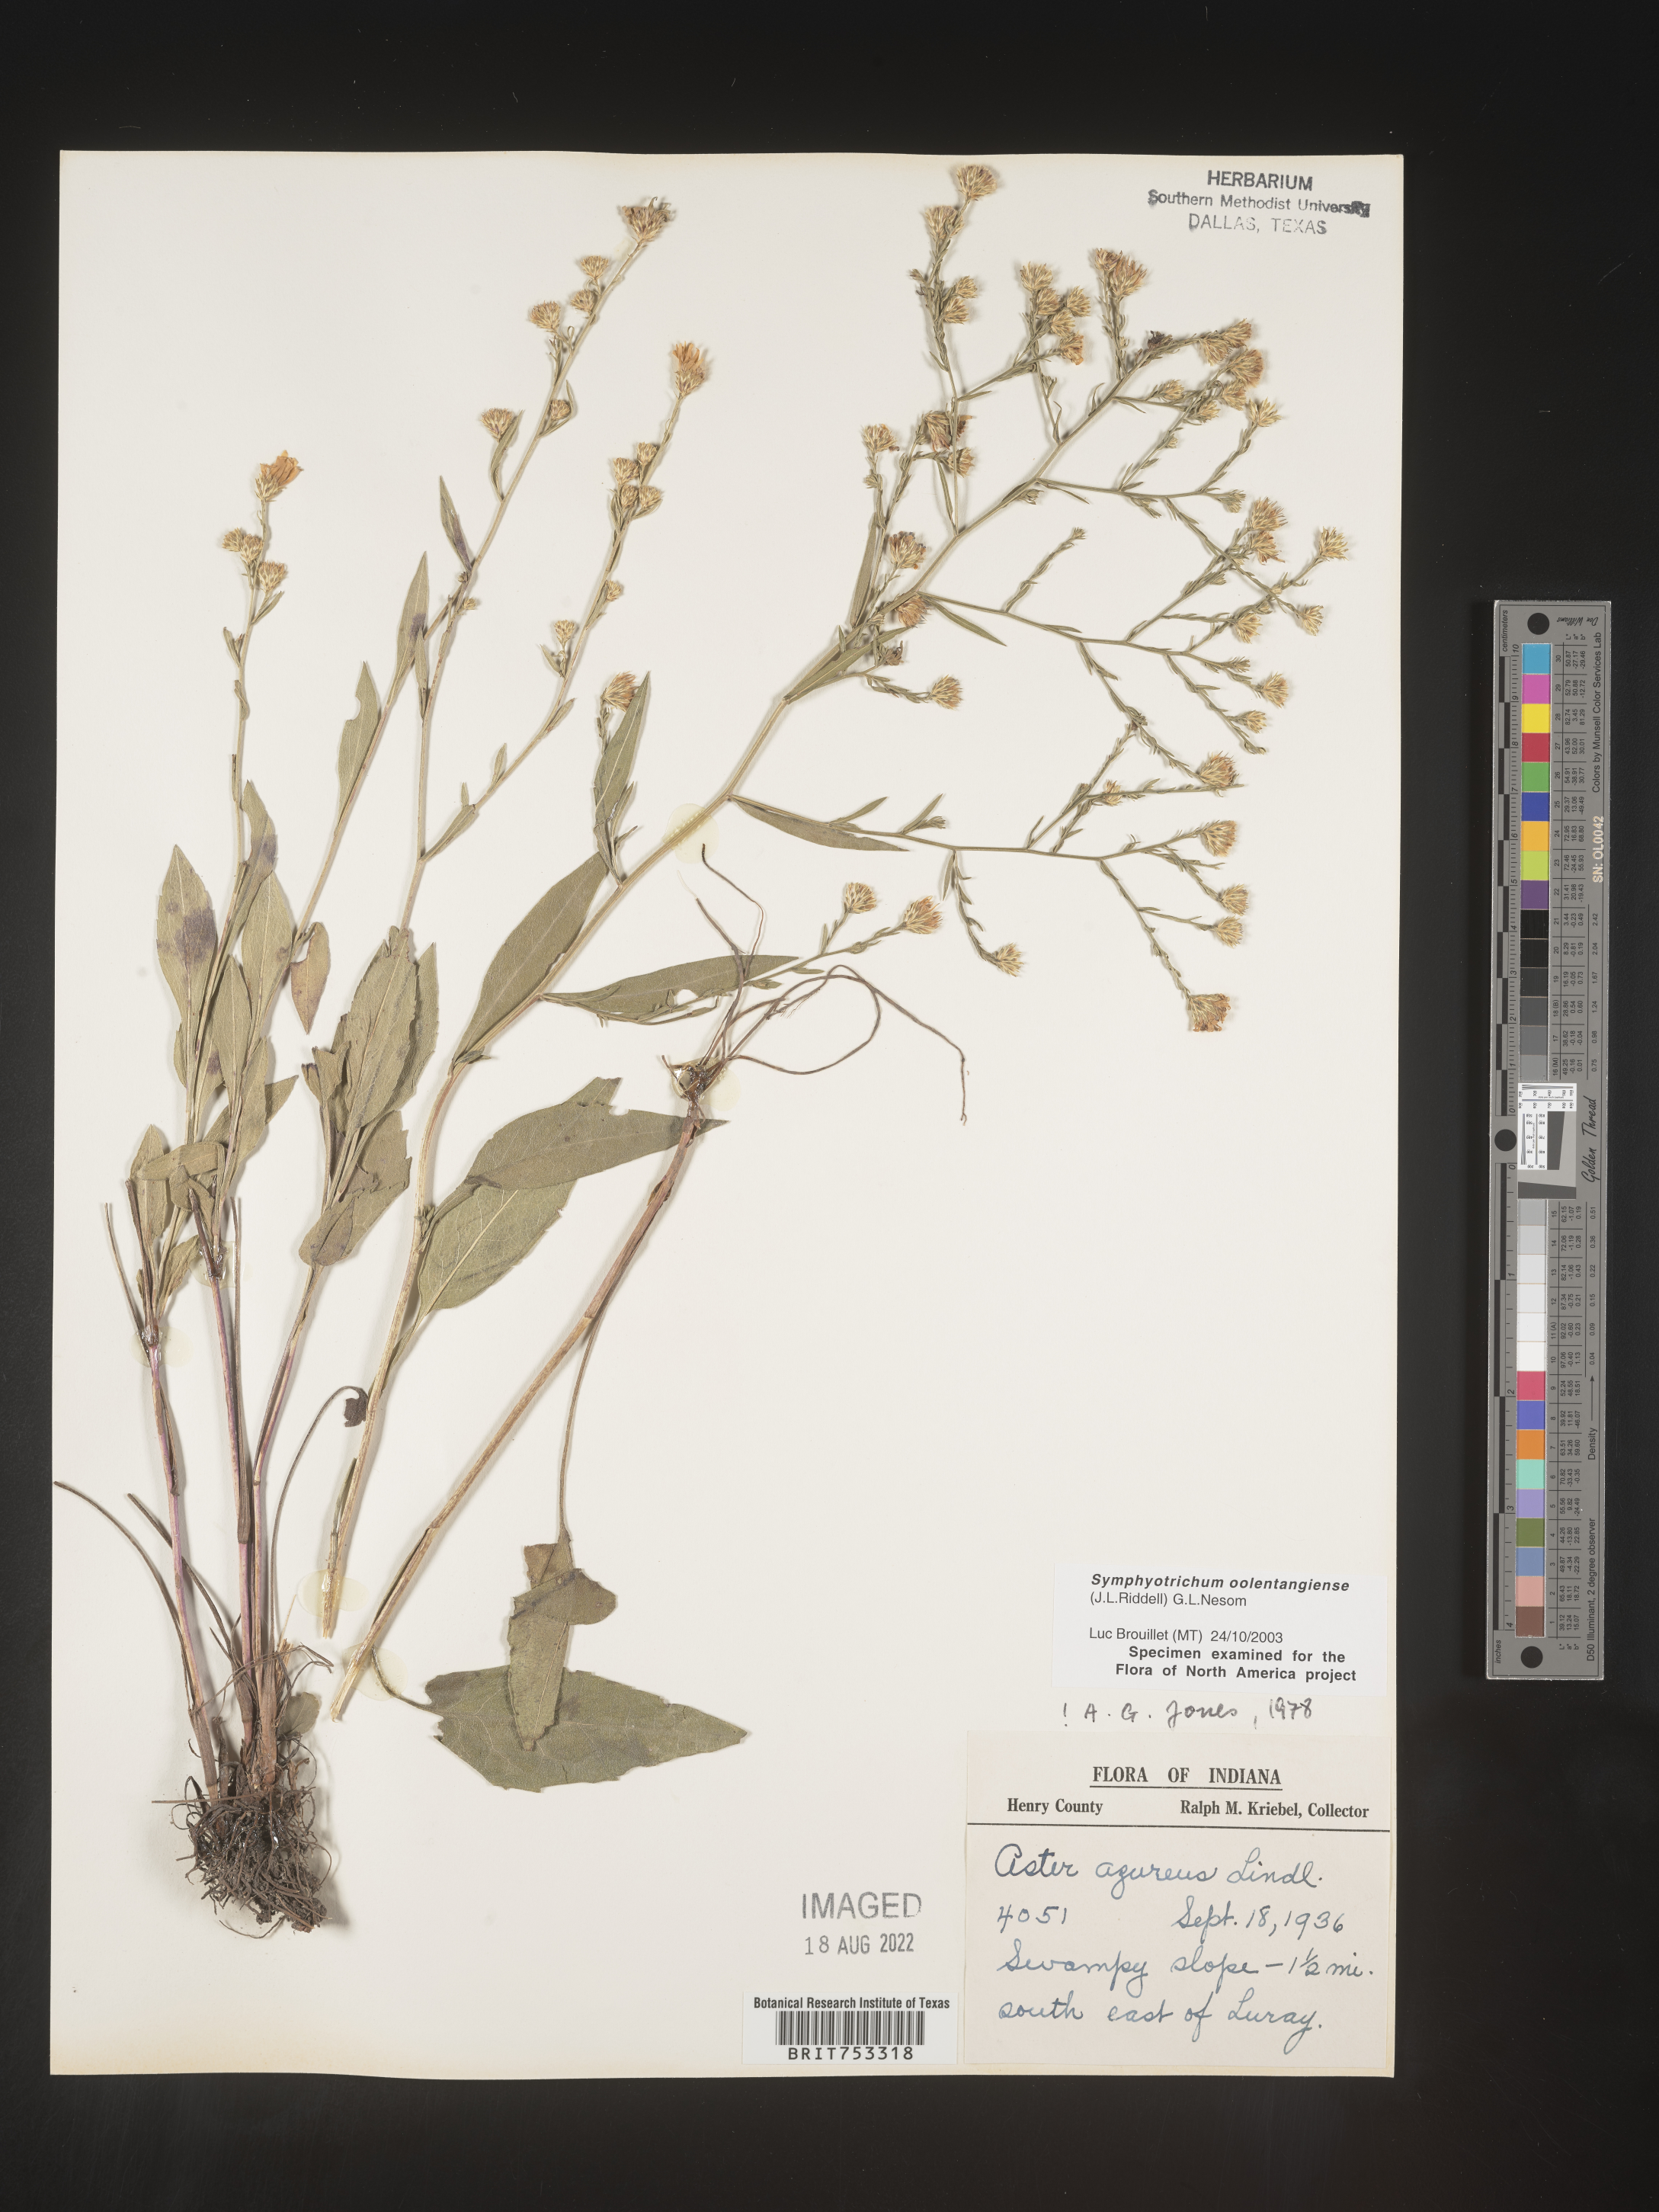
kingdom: Plantae
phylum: Tracheophyta
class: Magnoliopsida
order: Asterales
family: Asteraceae
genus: Symphyotrichum
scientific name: Symphyotrichum oolentangiense
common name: Azure aster
